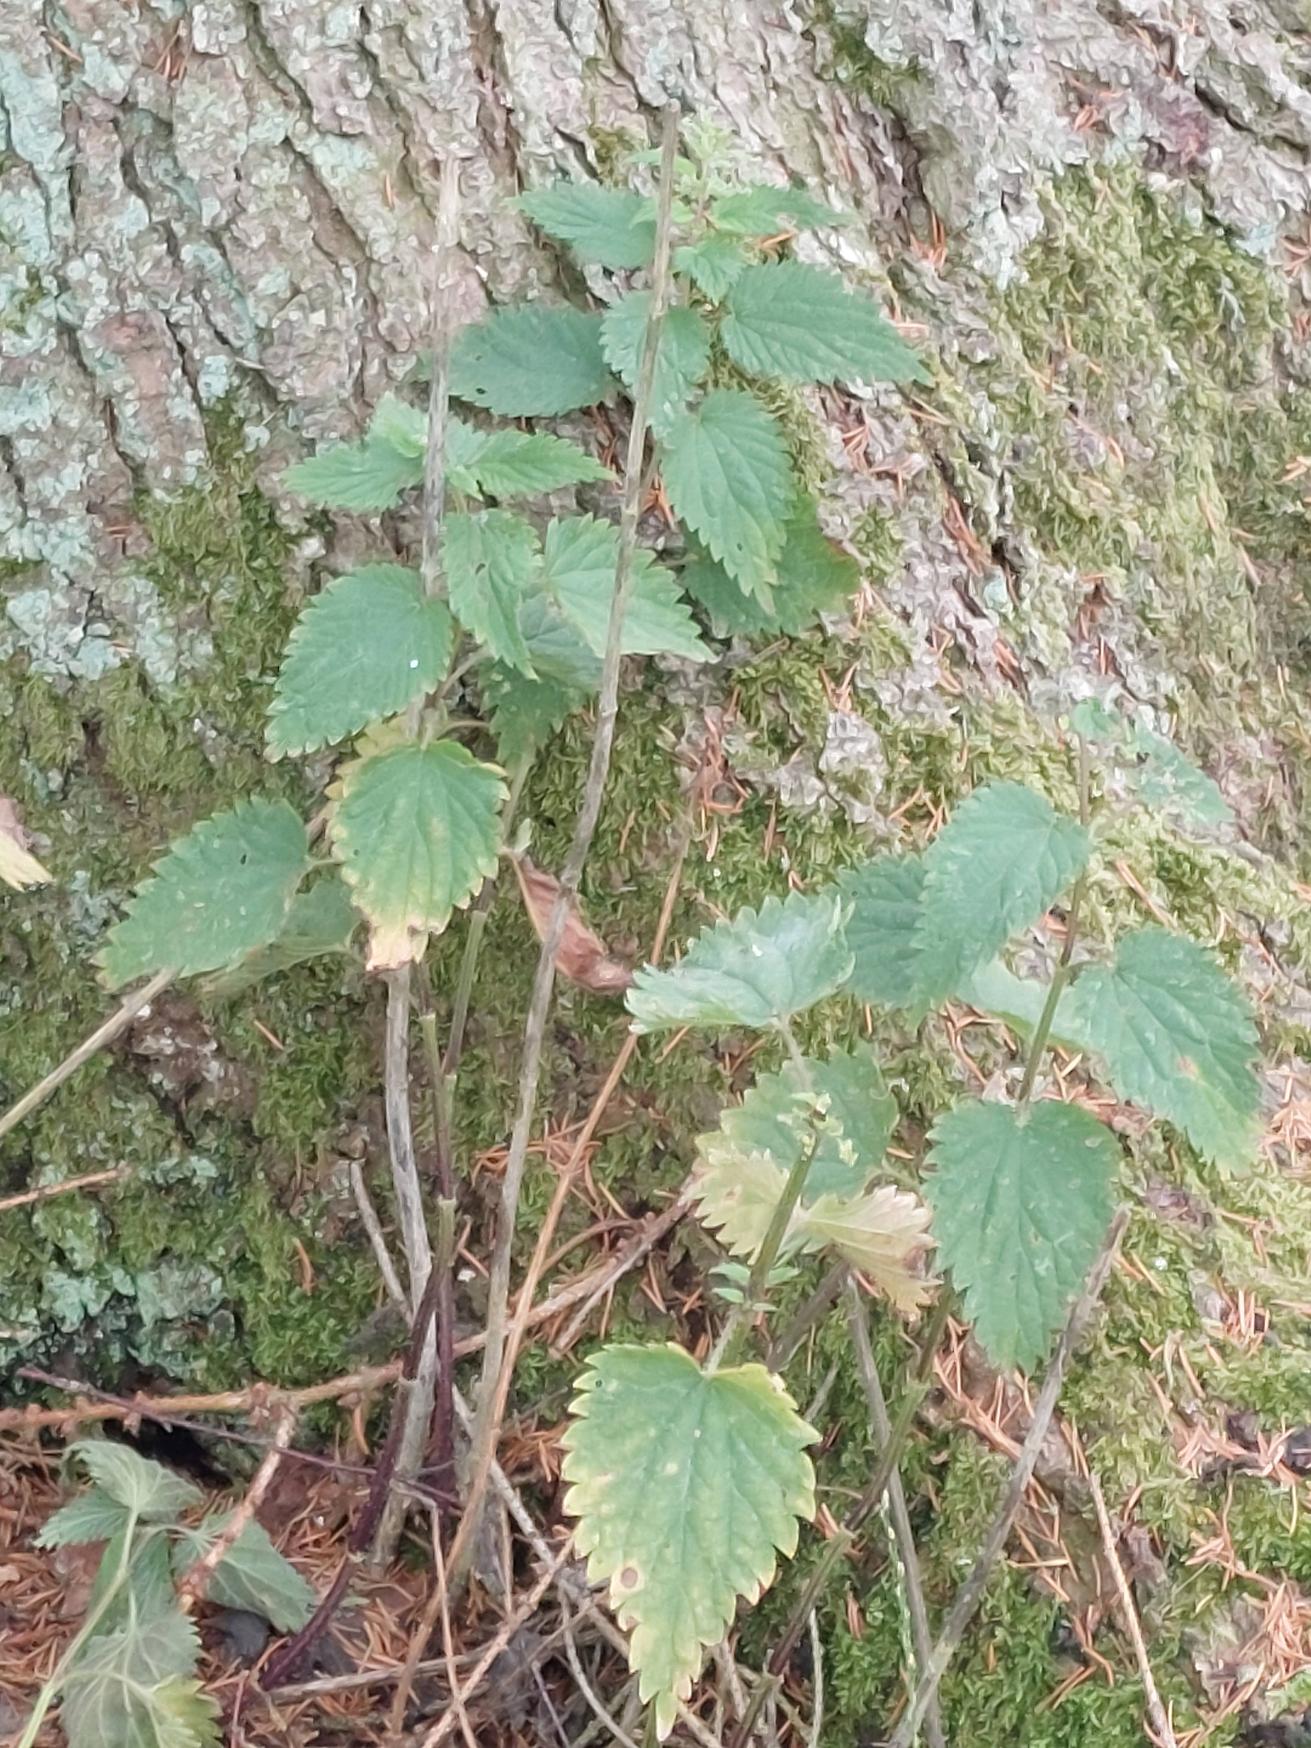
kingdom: Plantae
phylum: Tracheophyta
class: Magnoliopsida
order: Rosales
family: Urticaceae
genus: Urtica
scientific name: Urtica dioica
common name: Stor nælde
